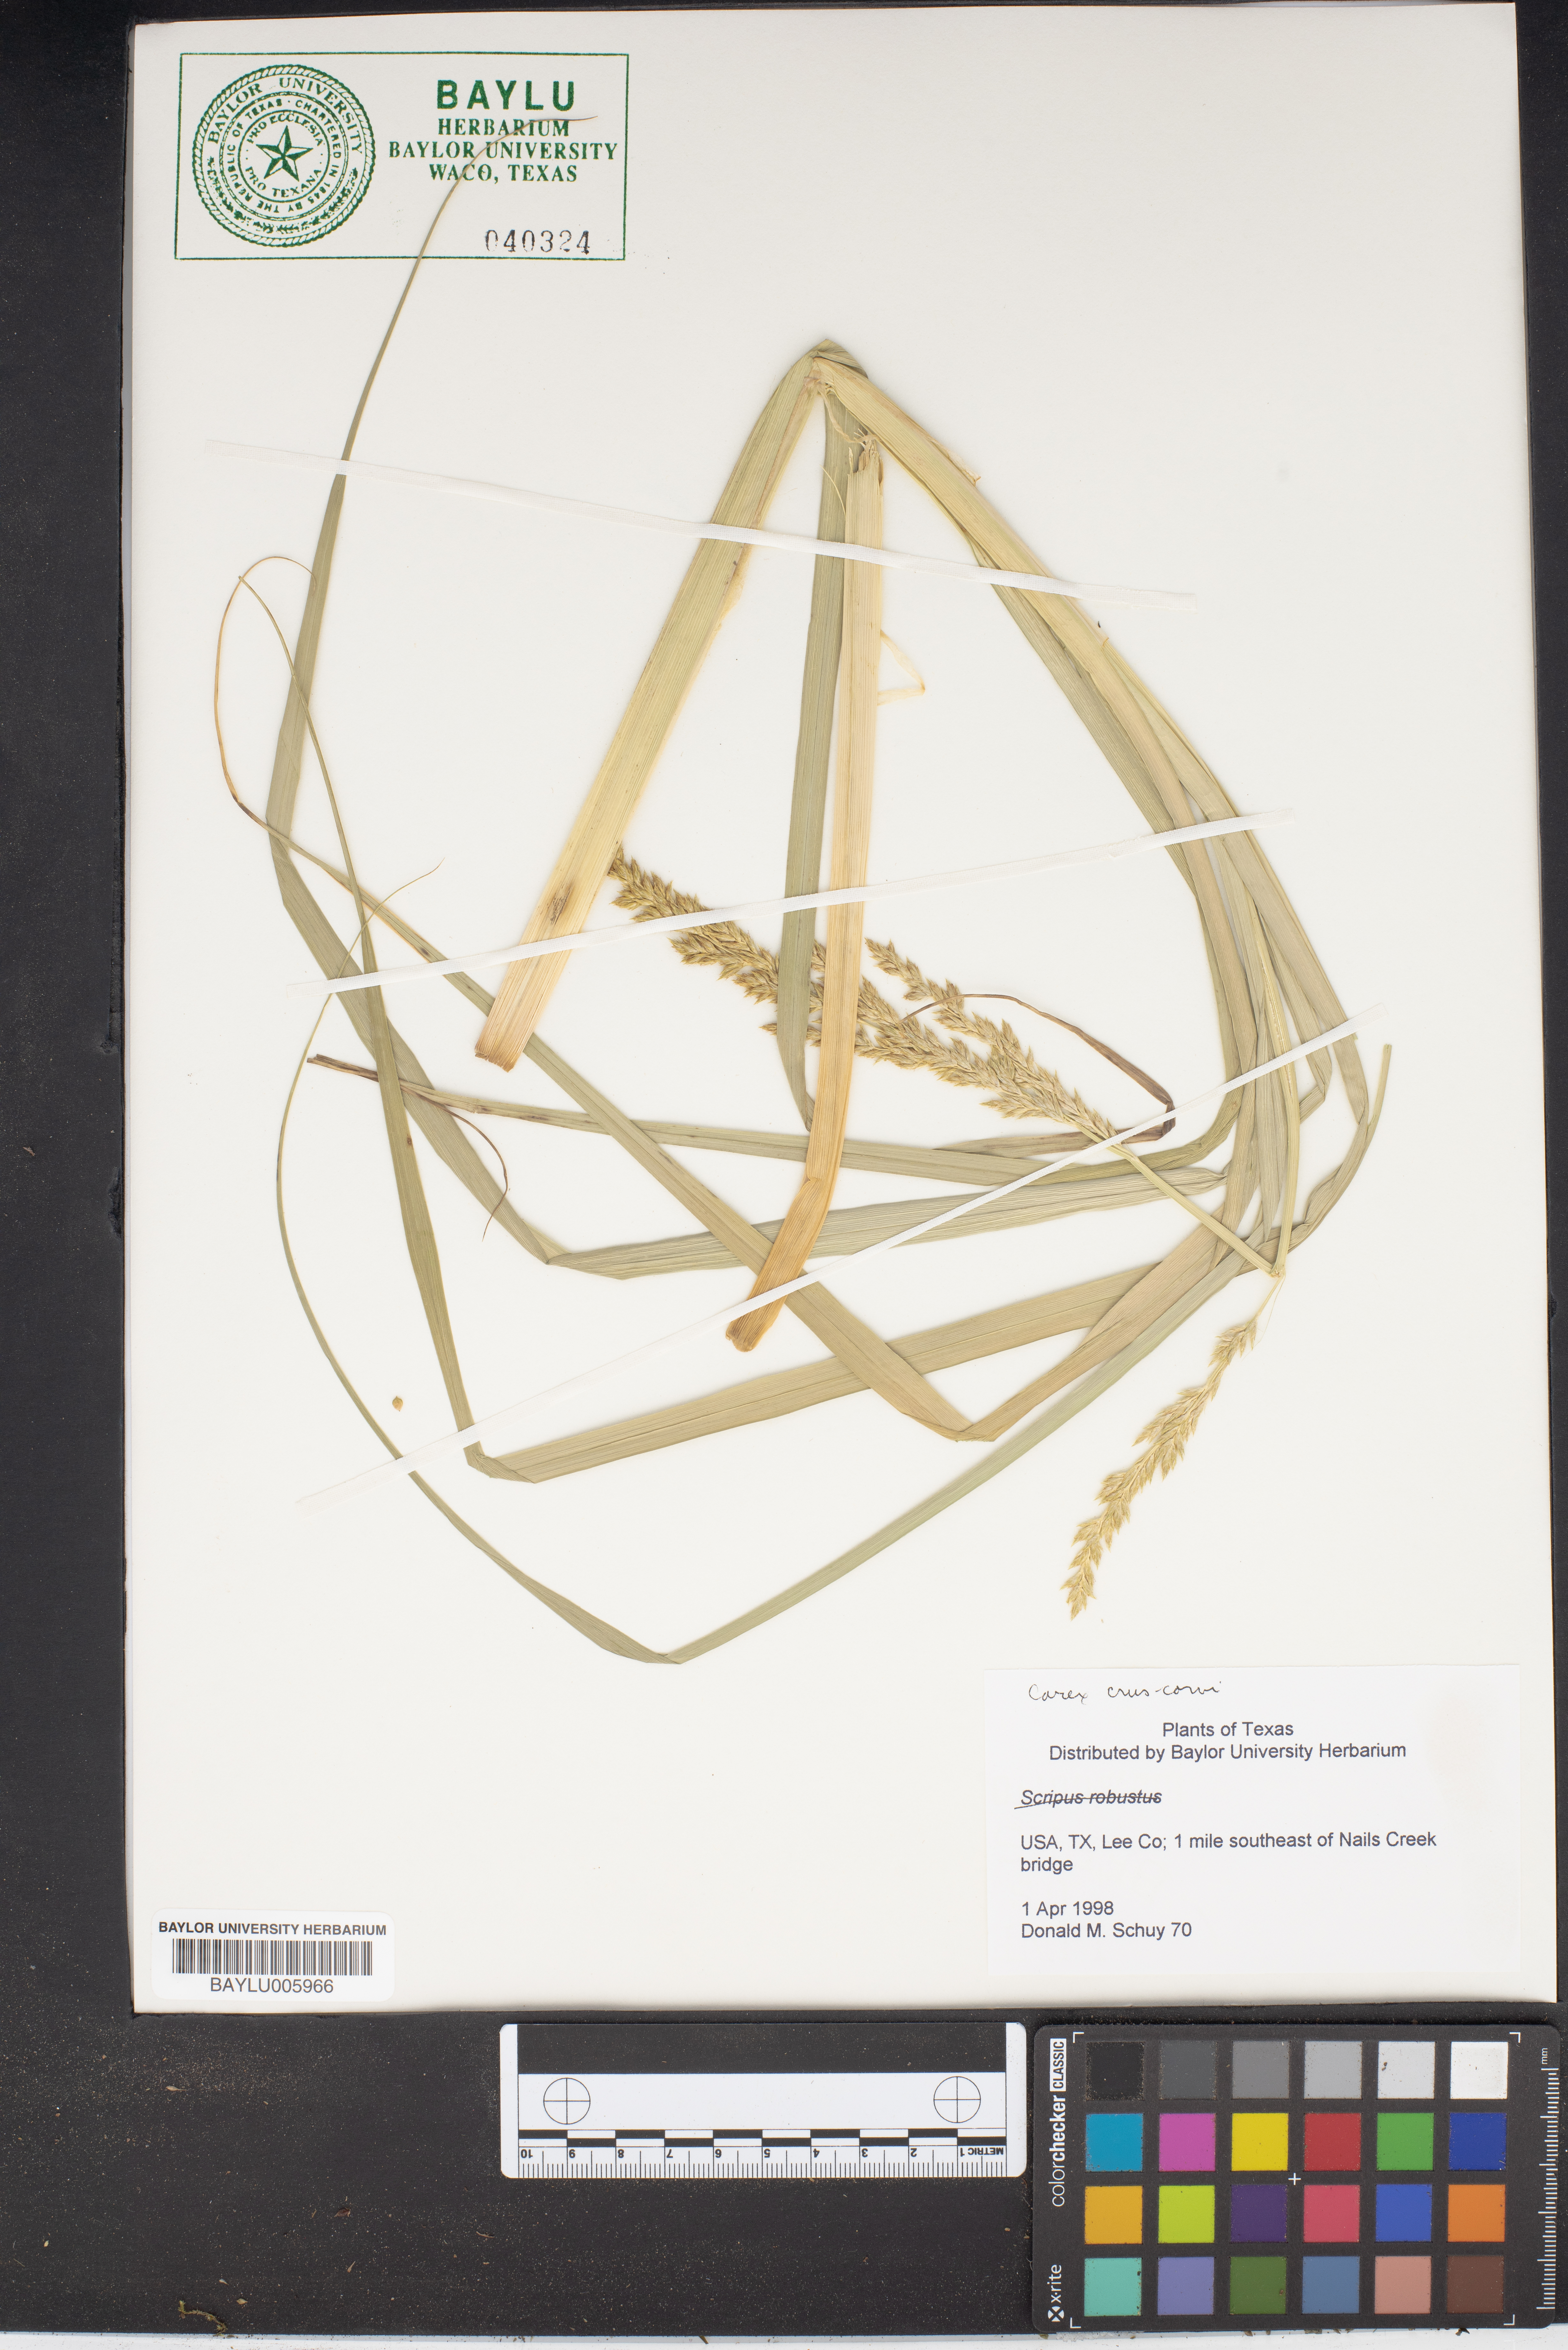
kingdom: Plantae
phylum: Tracheophyta
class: Liliopsida
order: Poales
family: Cyperaceae
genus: Carex
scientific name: Carex crus-corvi
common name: Crow-spur sedge
